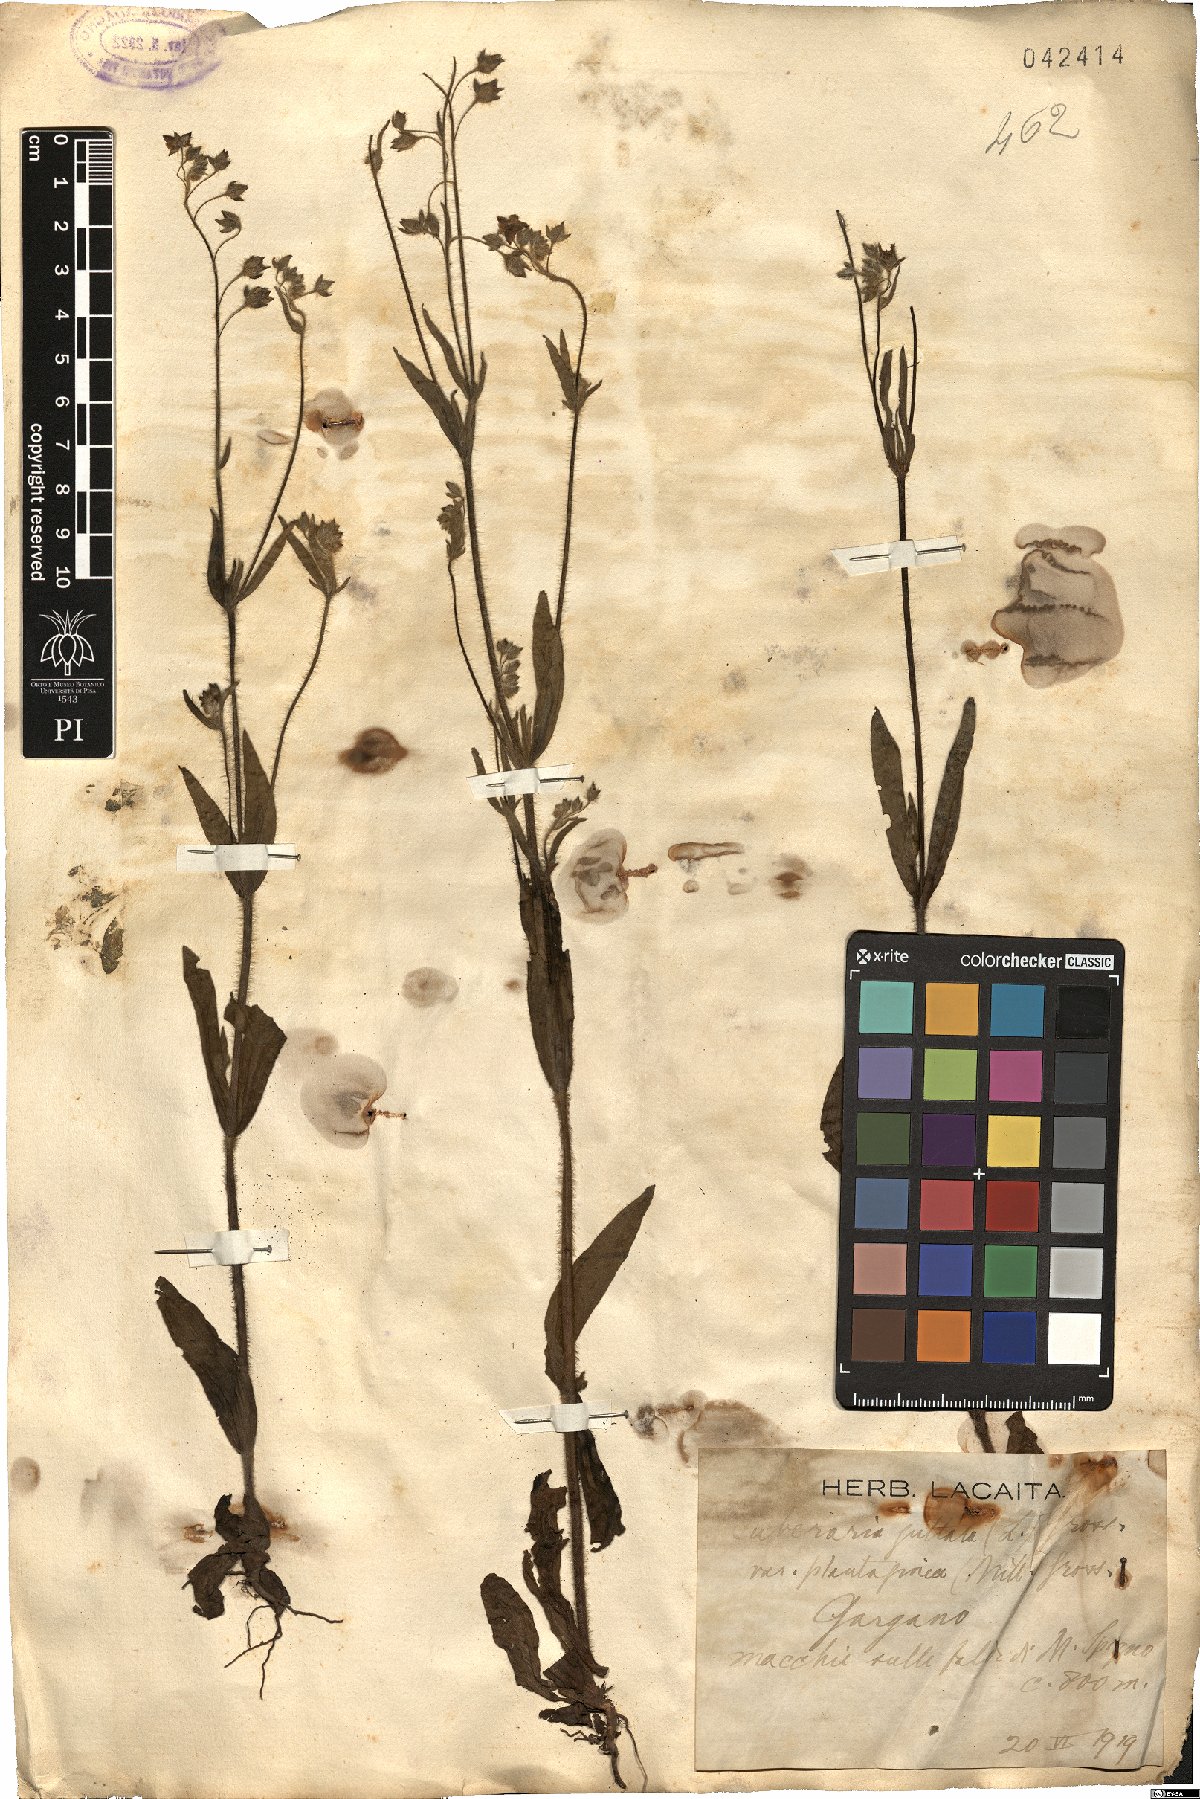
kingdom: Plantae
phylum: Tracheophyta
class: Magnoliopsida
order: Malvales
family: Cistaceae
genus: Tuberaria
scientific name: Tuberaria guttata
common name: Spotted rock-rose
